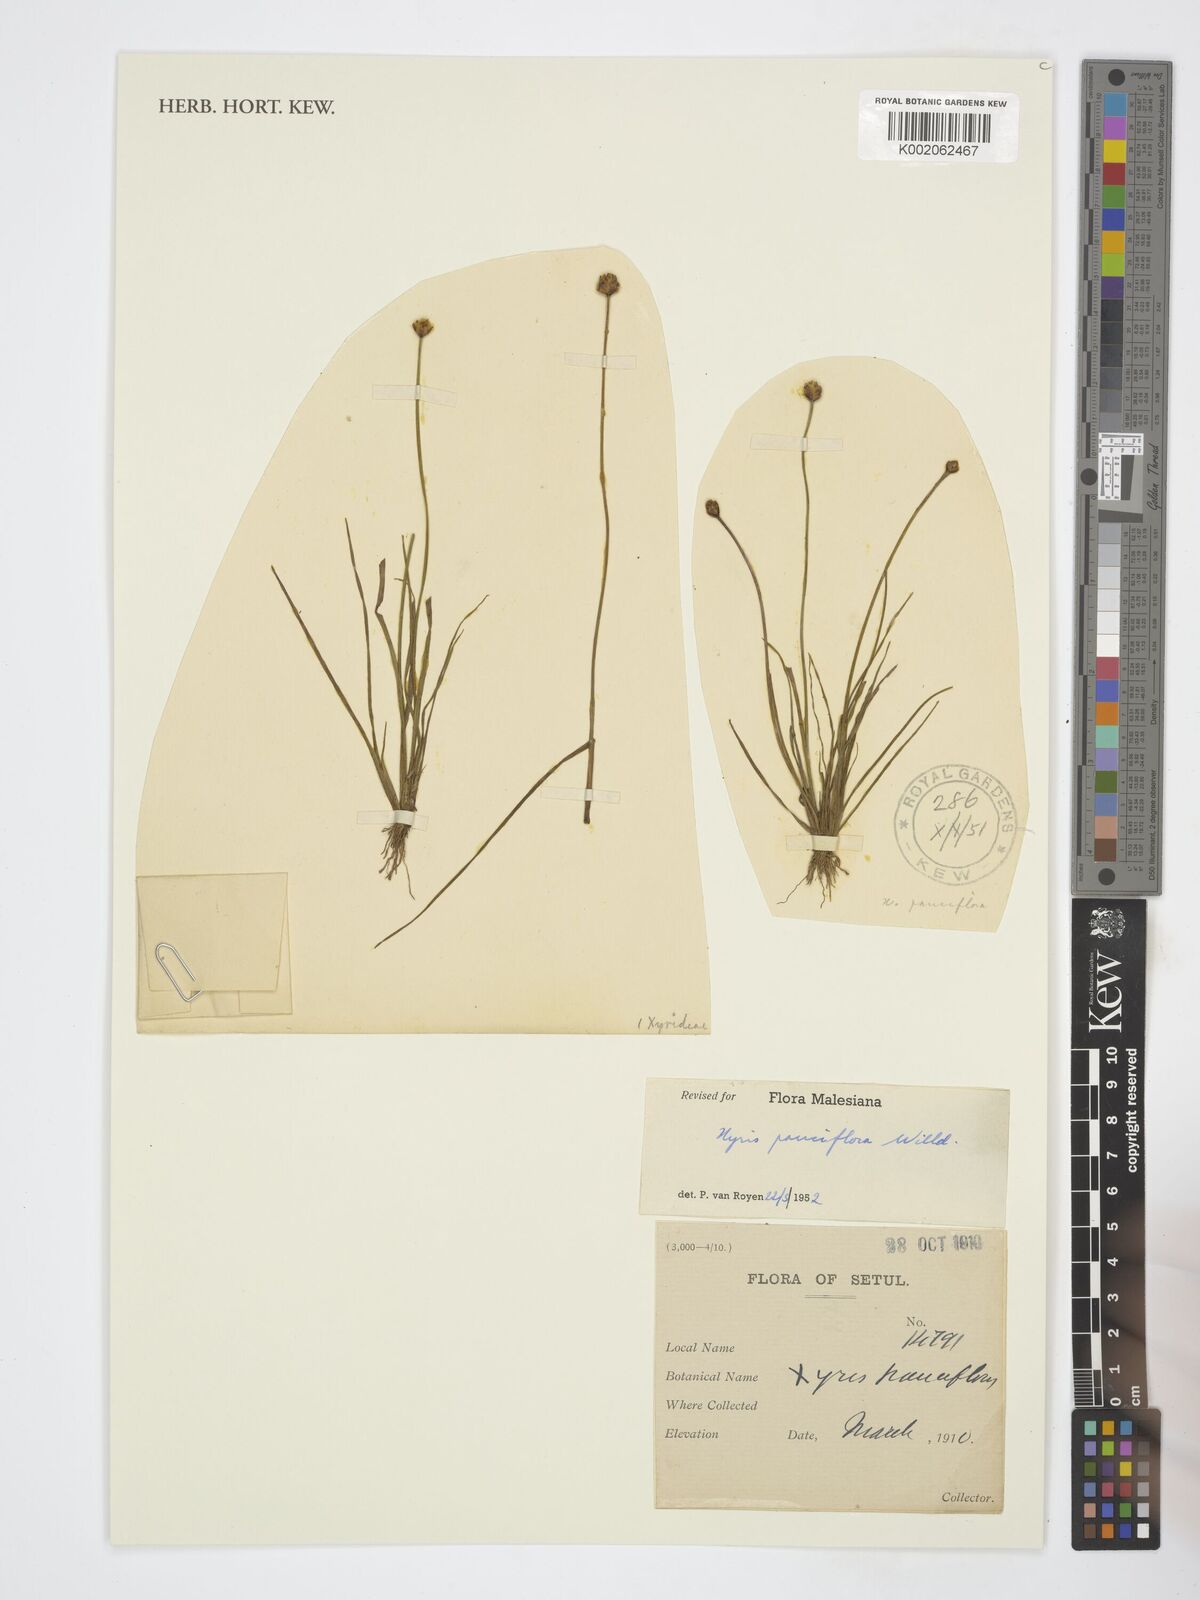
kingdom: Plantae
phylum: Tracheophyta
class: Liliopsida
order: Poales
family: Xyridaceae
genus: Xyris
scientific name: Xyris pauciflora
